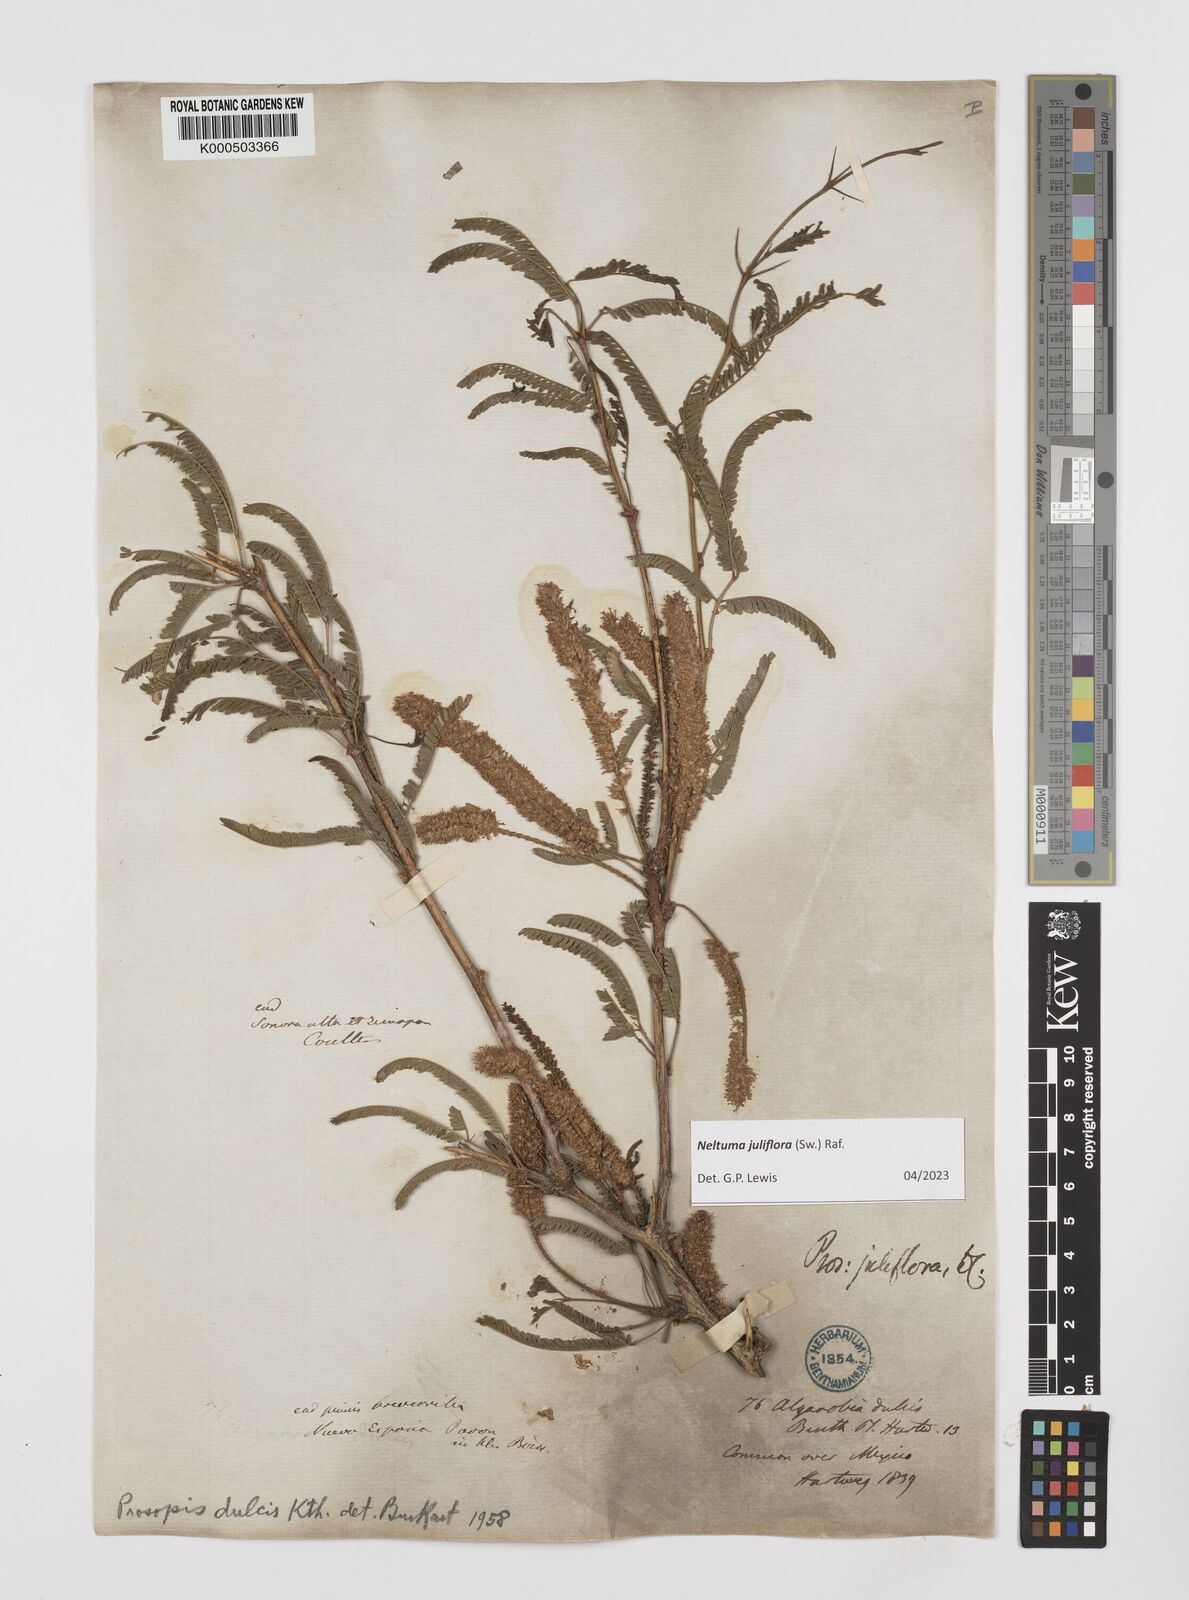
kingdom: Plantae
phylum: Tracheophyta
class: Magnoliopsida
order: Fabales
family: Fabaceae
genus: Prosopis
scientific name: Prosopis chilensis
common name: Chilean algarrobo
